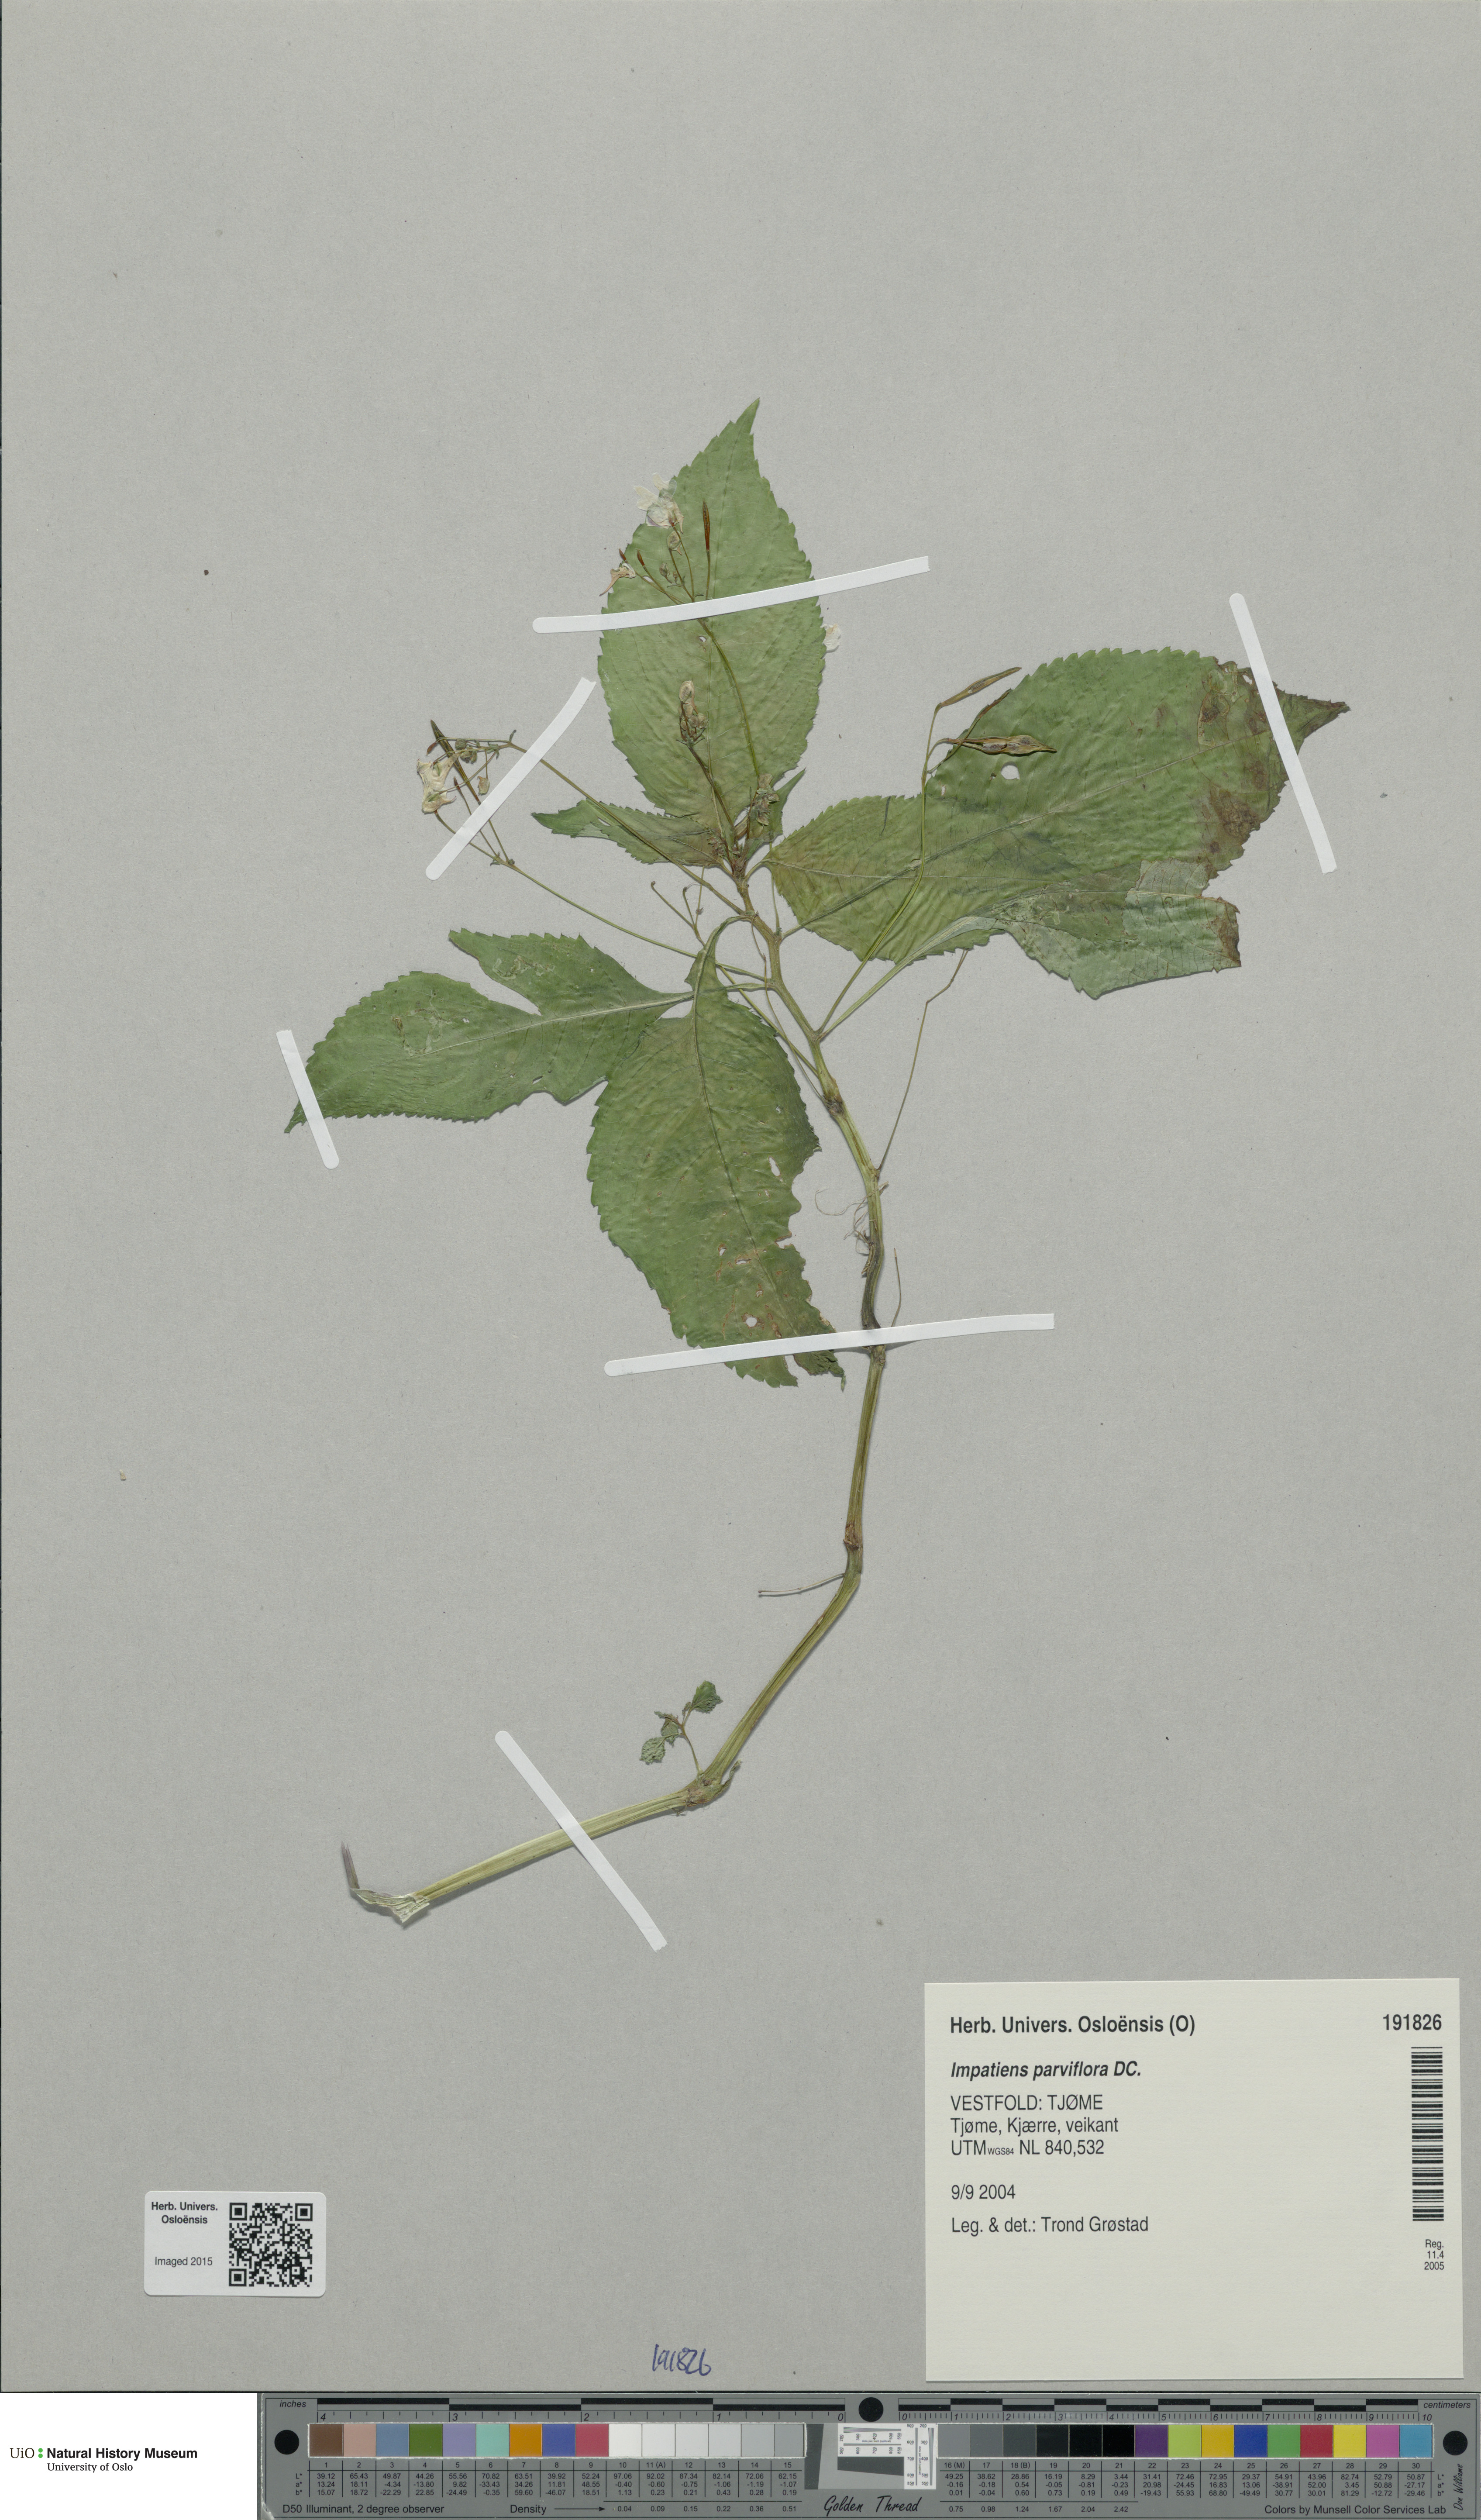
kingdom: Plantae
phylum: Tracheophyta
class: Magnoliopsida
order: Ericales
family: Balsaminaceae
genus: Impatiens
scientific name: Impatiens parviflora
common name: Small balsam
